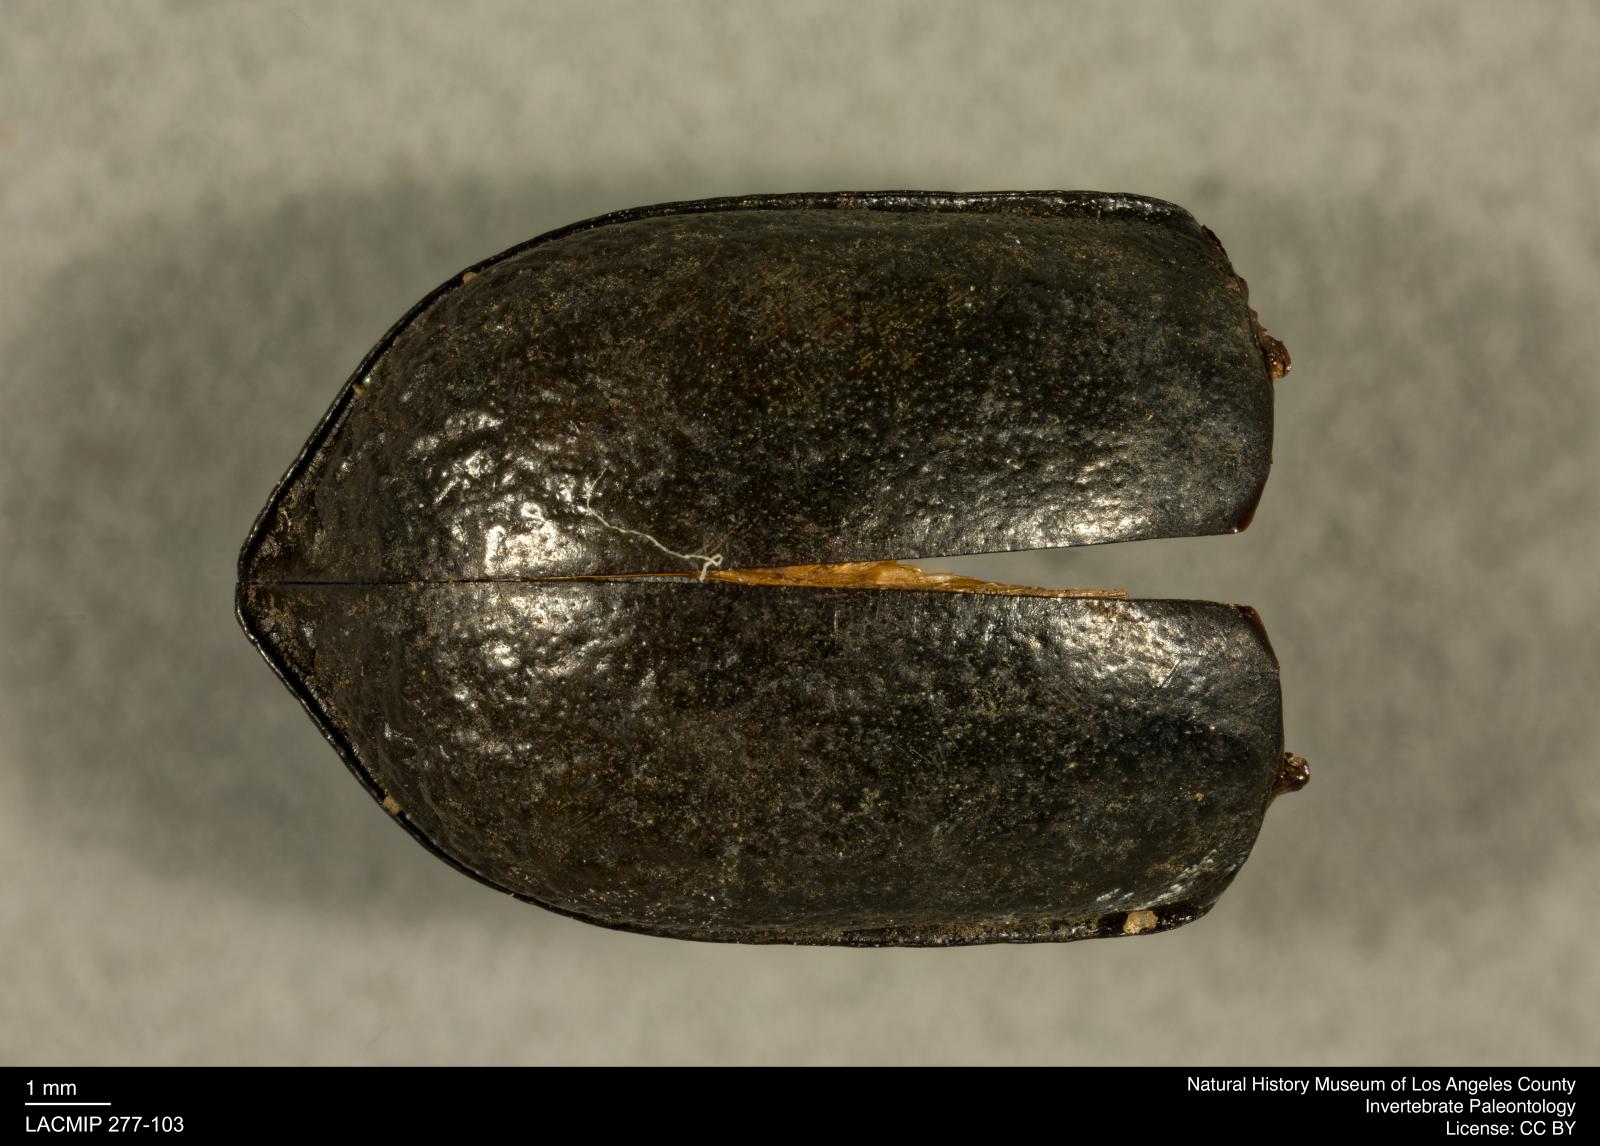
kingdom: Animalia
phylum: Arthropoda
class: Insecta
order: Coleoptera
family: Tenebrionidae
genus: Coniontis
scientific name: Coniontis abdominalis
